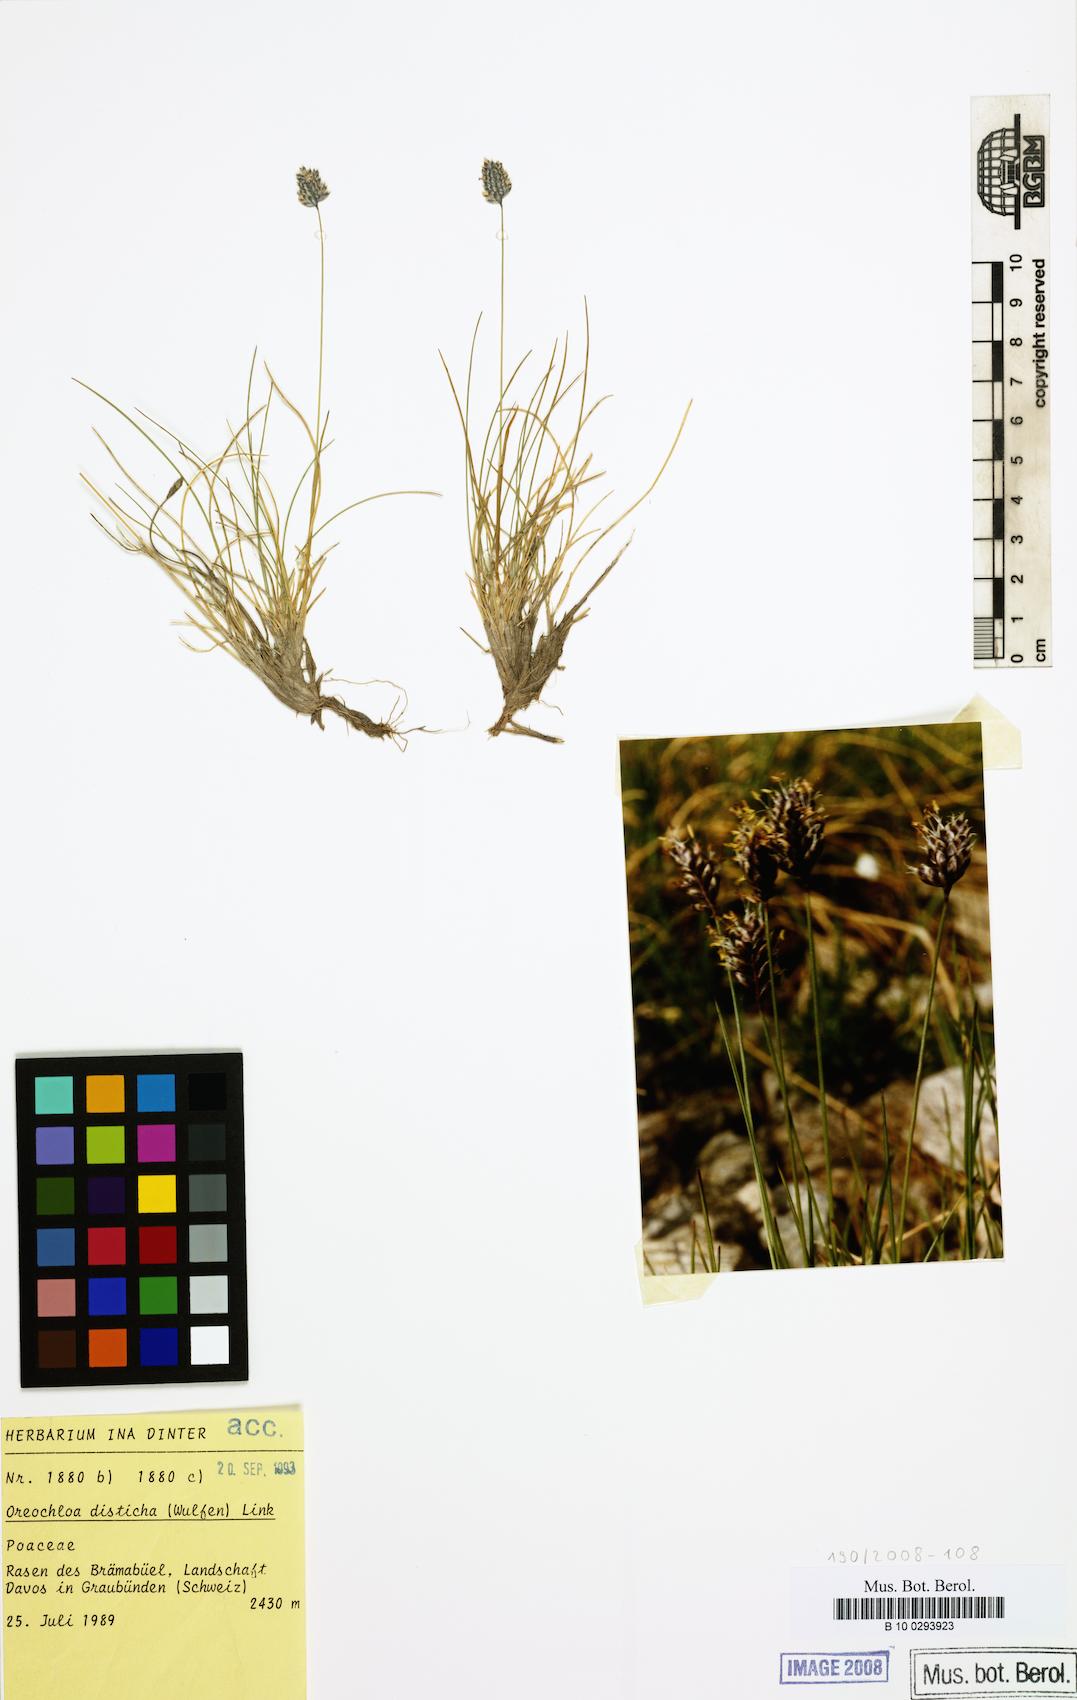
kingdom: Plantae
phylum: Tracheophyta
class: Liliopsida
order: Poales
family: Poaceae
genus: Oreochloa
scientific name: Oreochloa disticha
